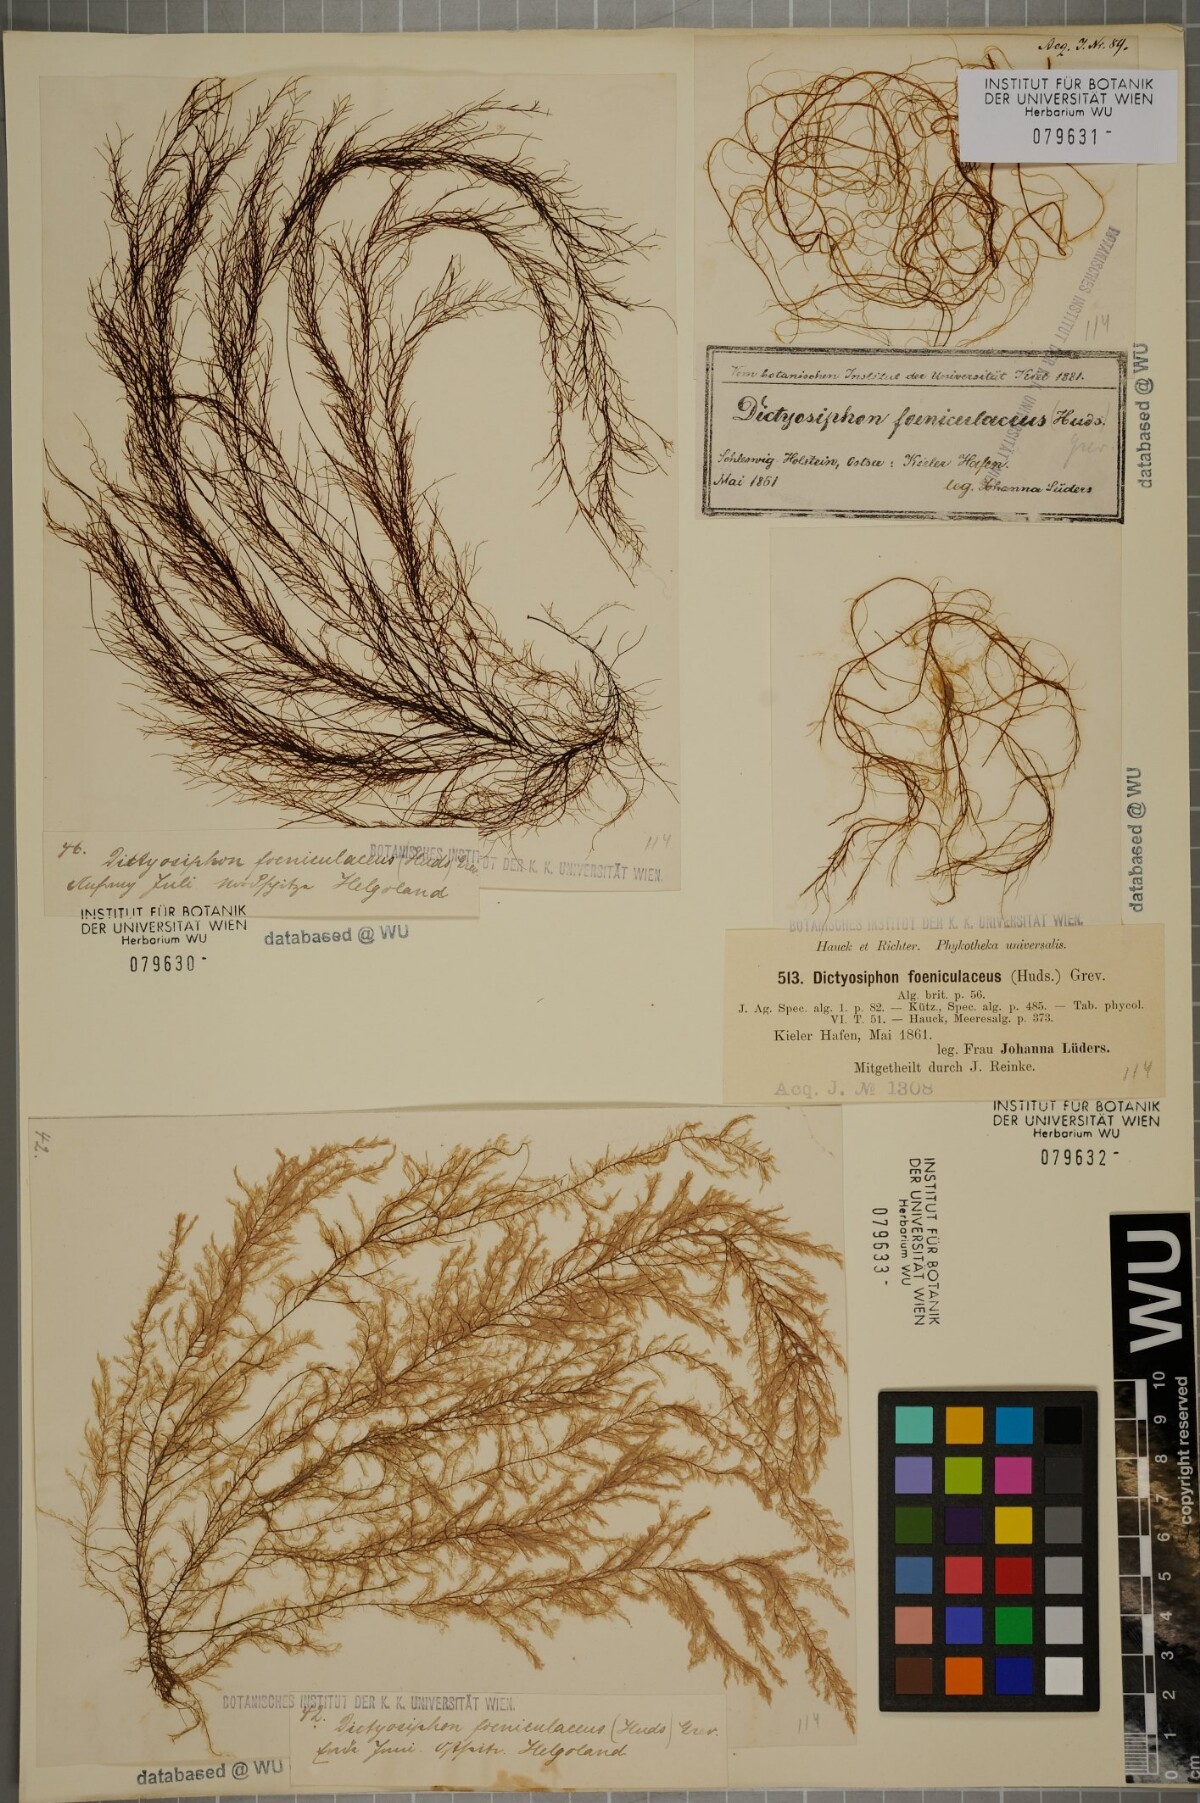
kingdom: Chromista
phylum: Ochrophyta
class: Phaeophyceae
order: Ectocarpales
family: Chordariaceae
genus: Dictyosiphon
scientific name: Dictyosiphon foeniculaceus
